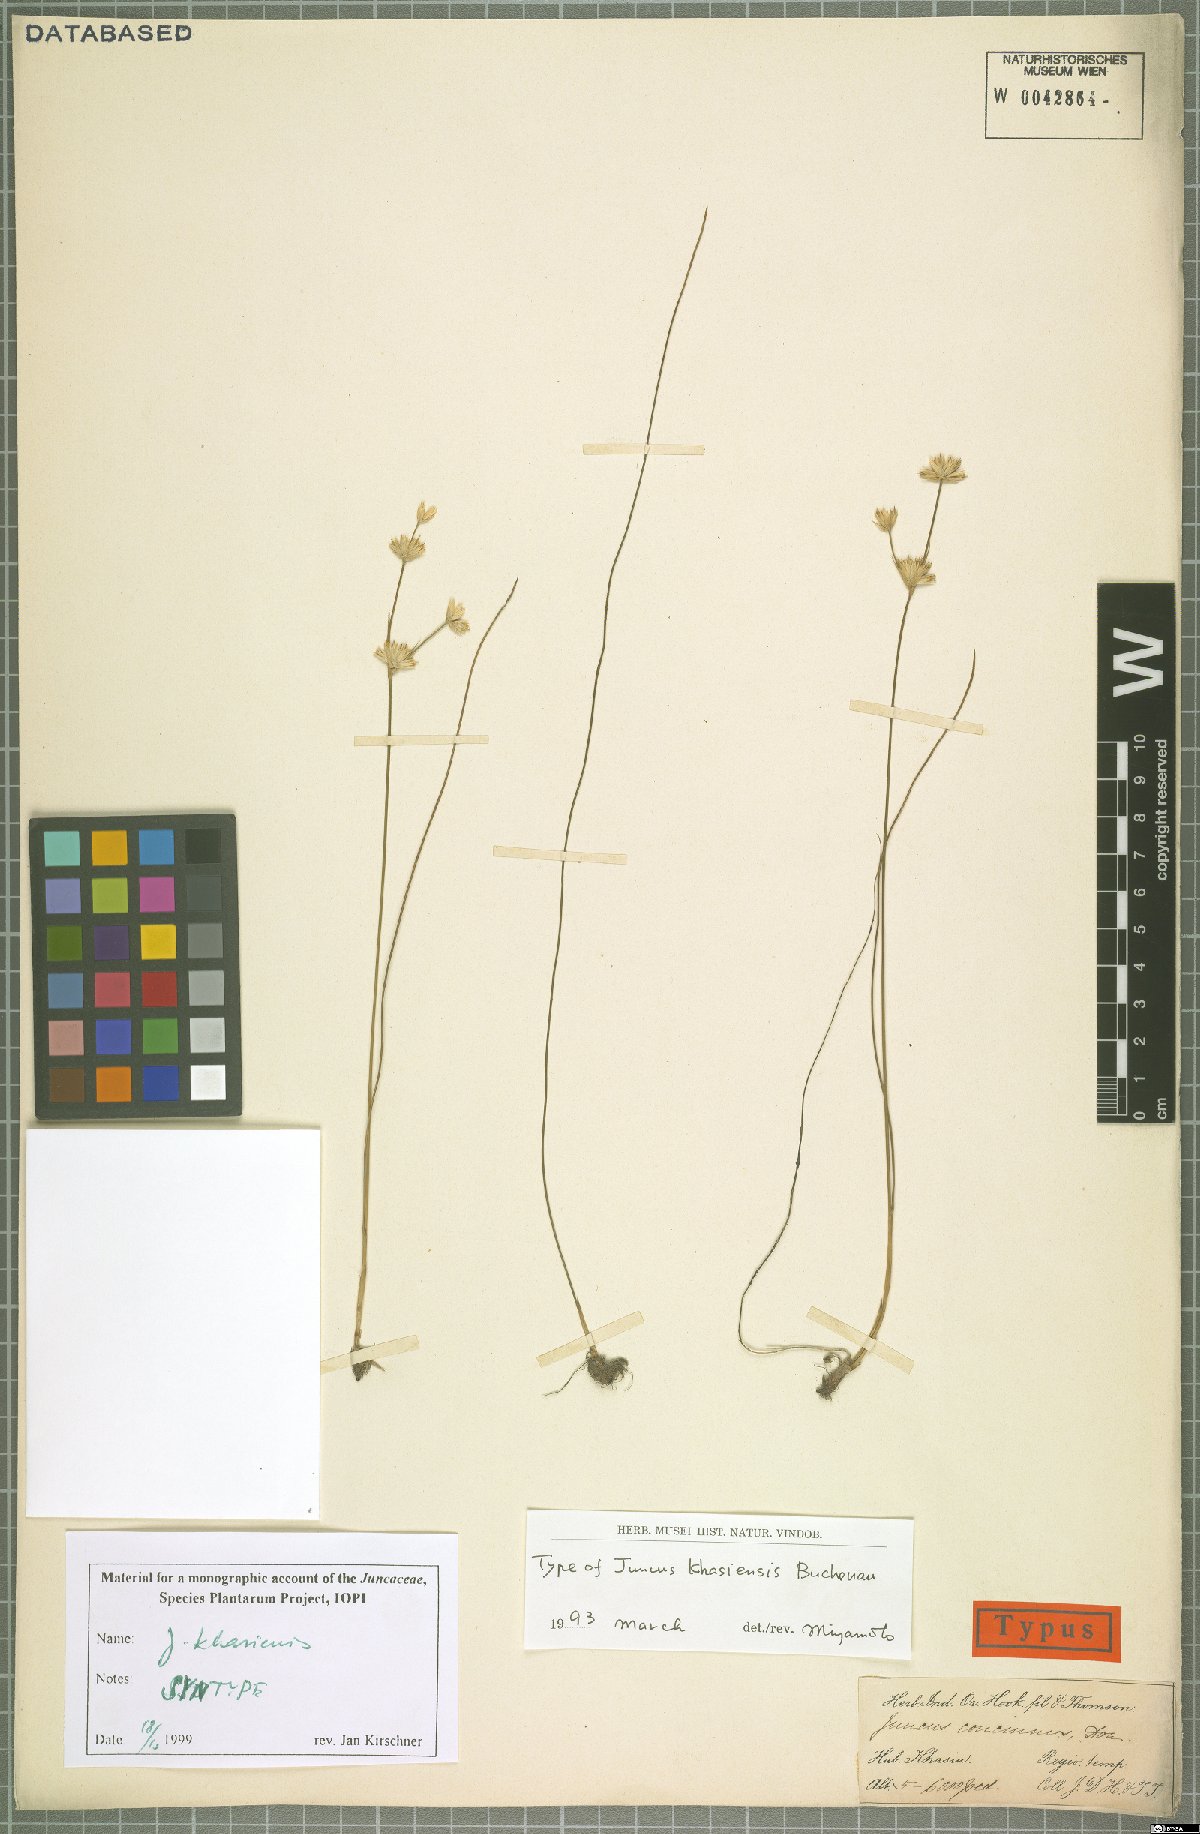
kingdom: Plantae
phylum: Tracheophyta
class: Liliopsida
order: Poales
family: Juncaceae
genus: Juncus
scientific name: Juncus khasiensis
